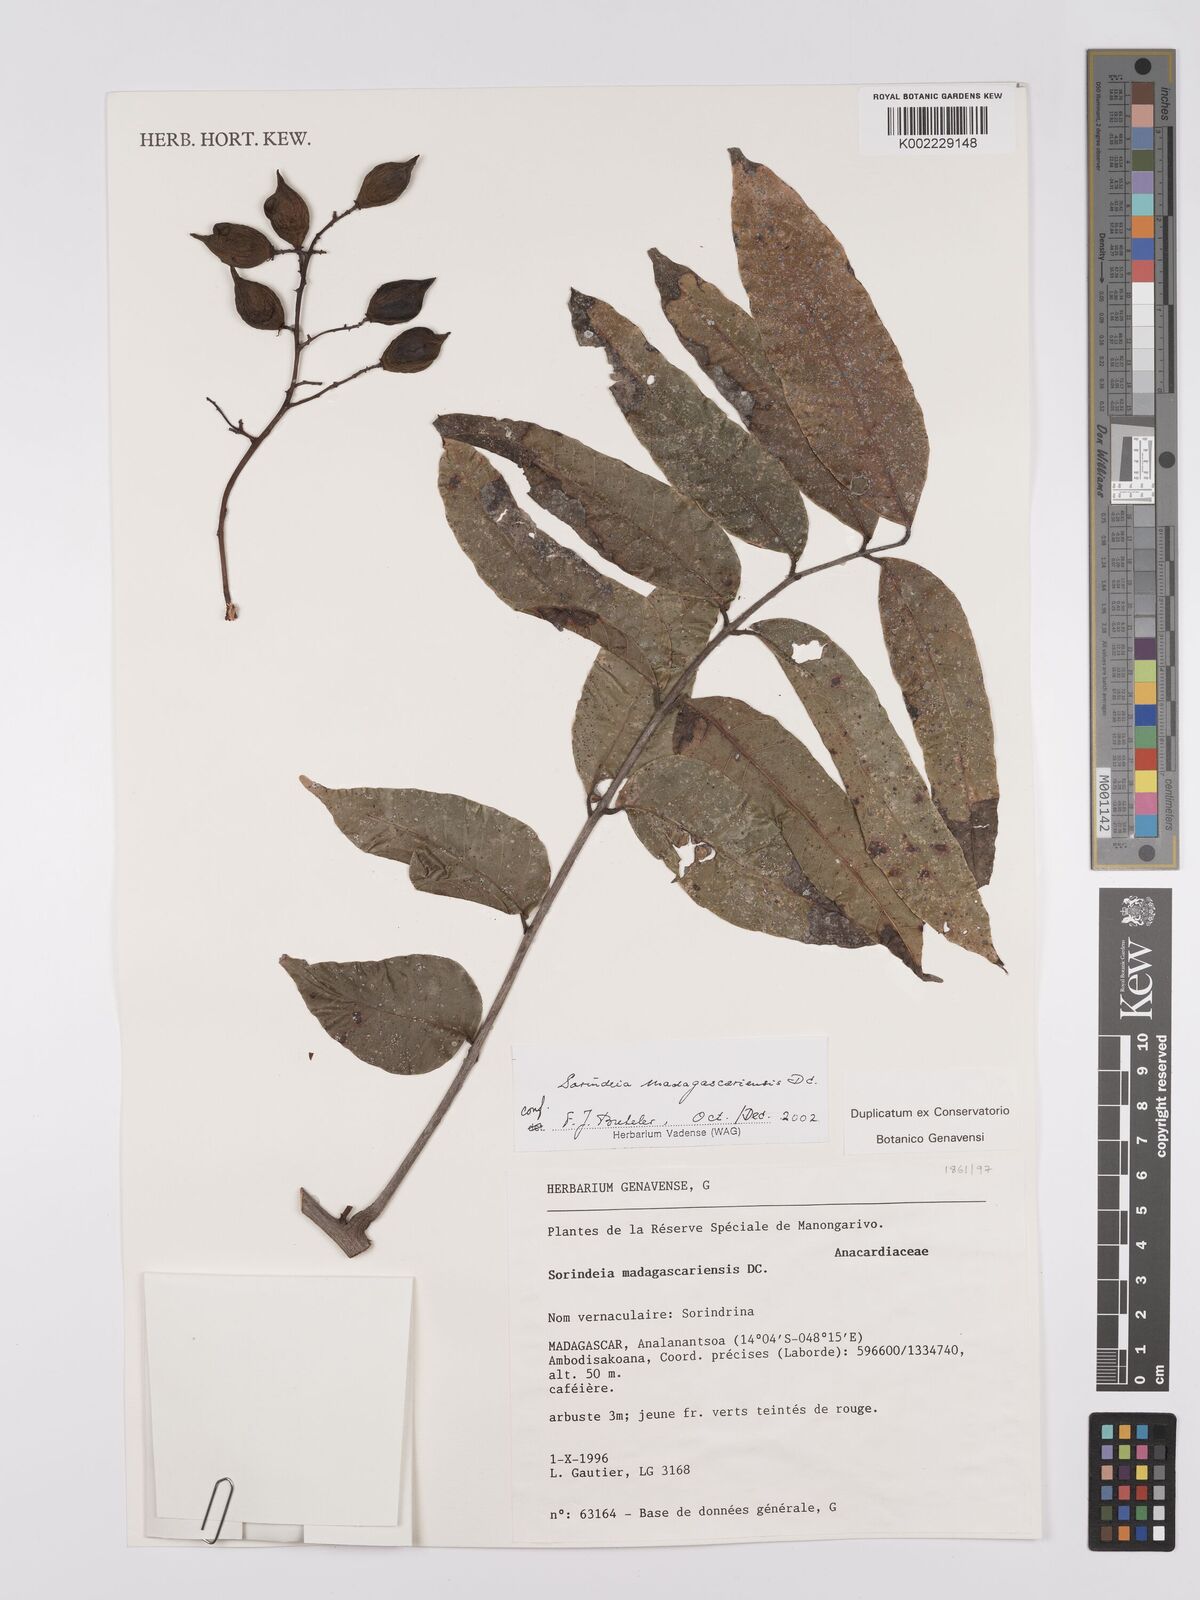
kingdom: Plantae
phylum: Tracheophyta
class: Magnoliopsida
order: Sapindales
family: Anacardiaceae
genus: Sorindeia
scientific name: Sorindeia madagascariensis
